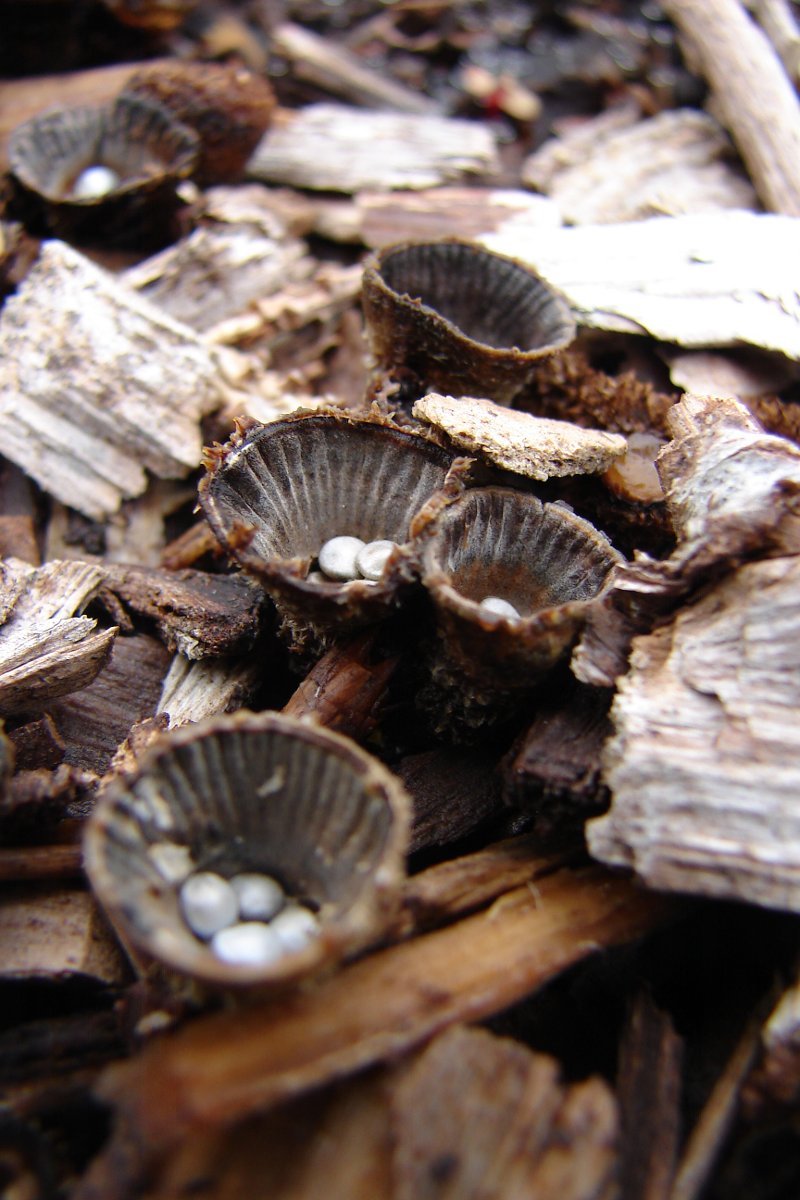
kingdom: Fungi
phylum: Basidiomycota
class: Agaricomycetes
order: Agaricales
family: Agaricaceae
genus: Cyathus
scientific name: Cyathus striatus
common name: stribet redesvamp
